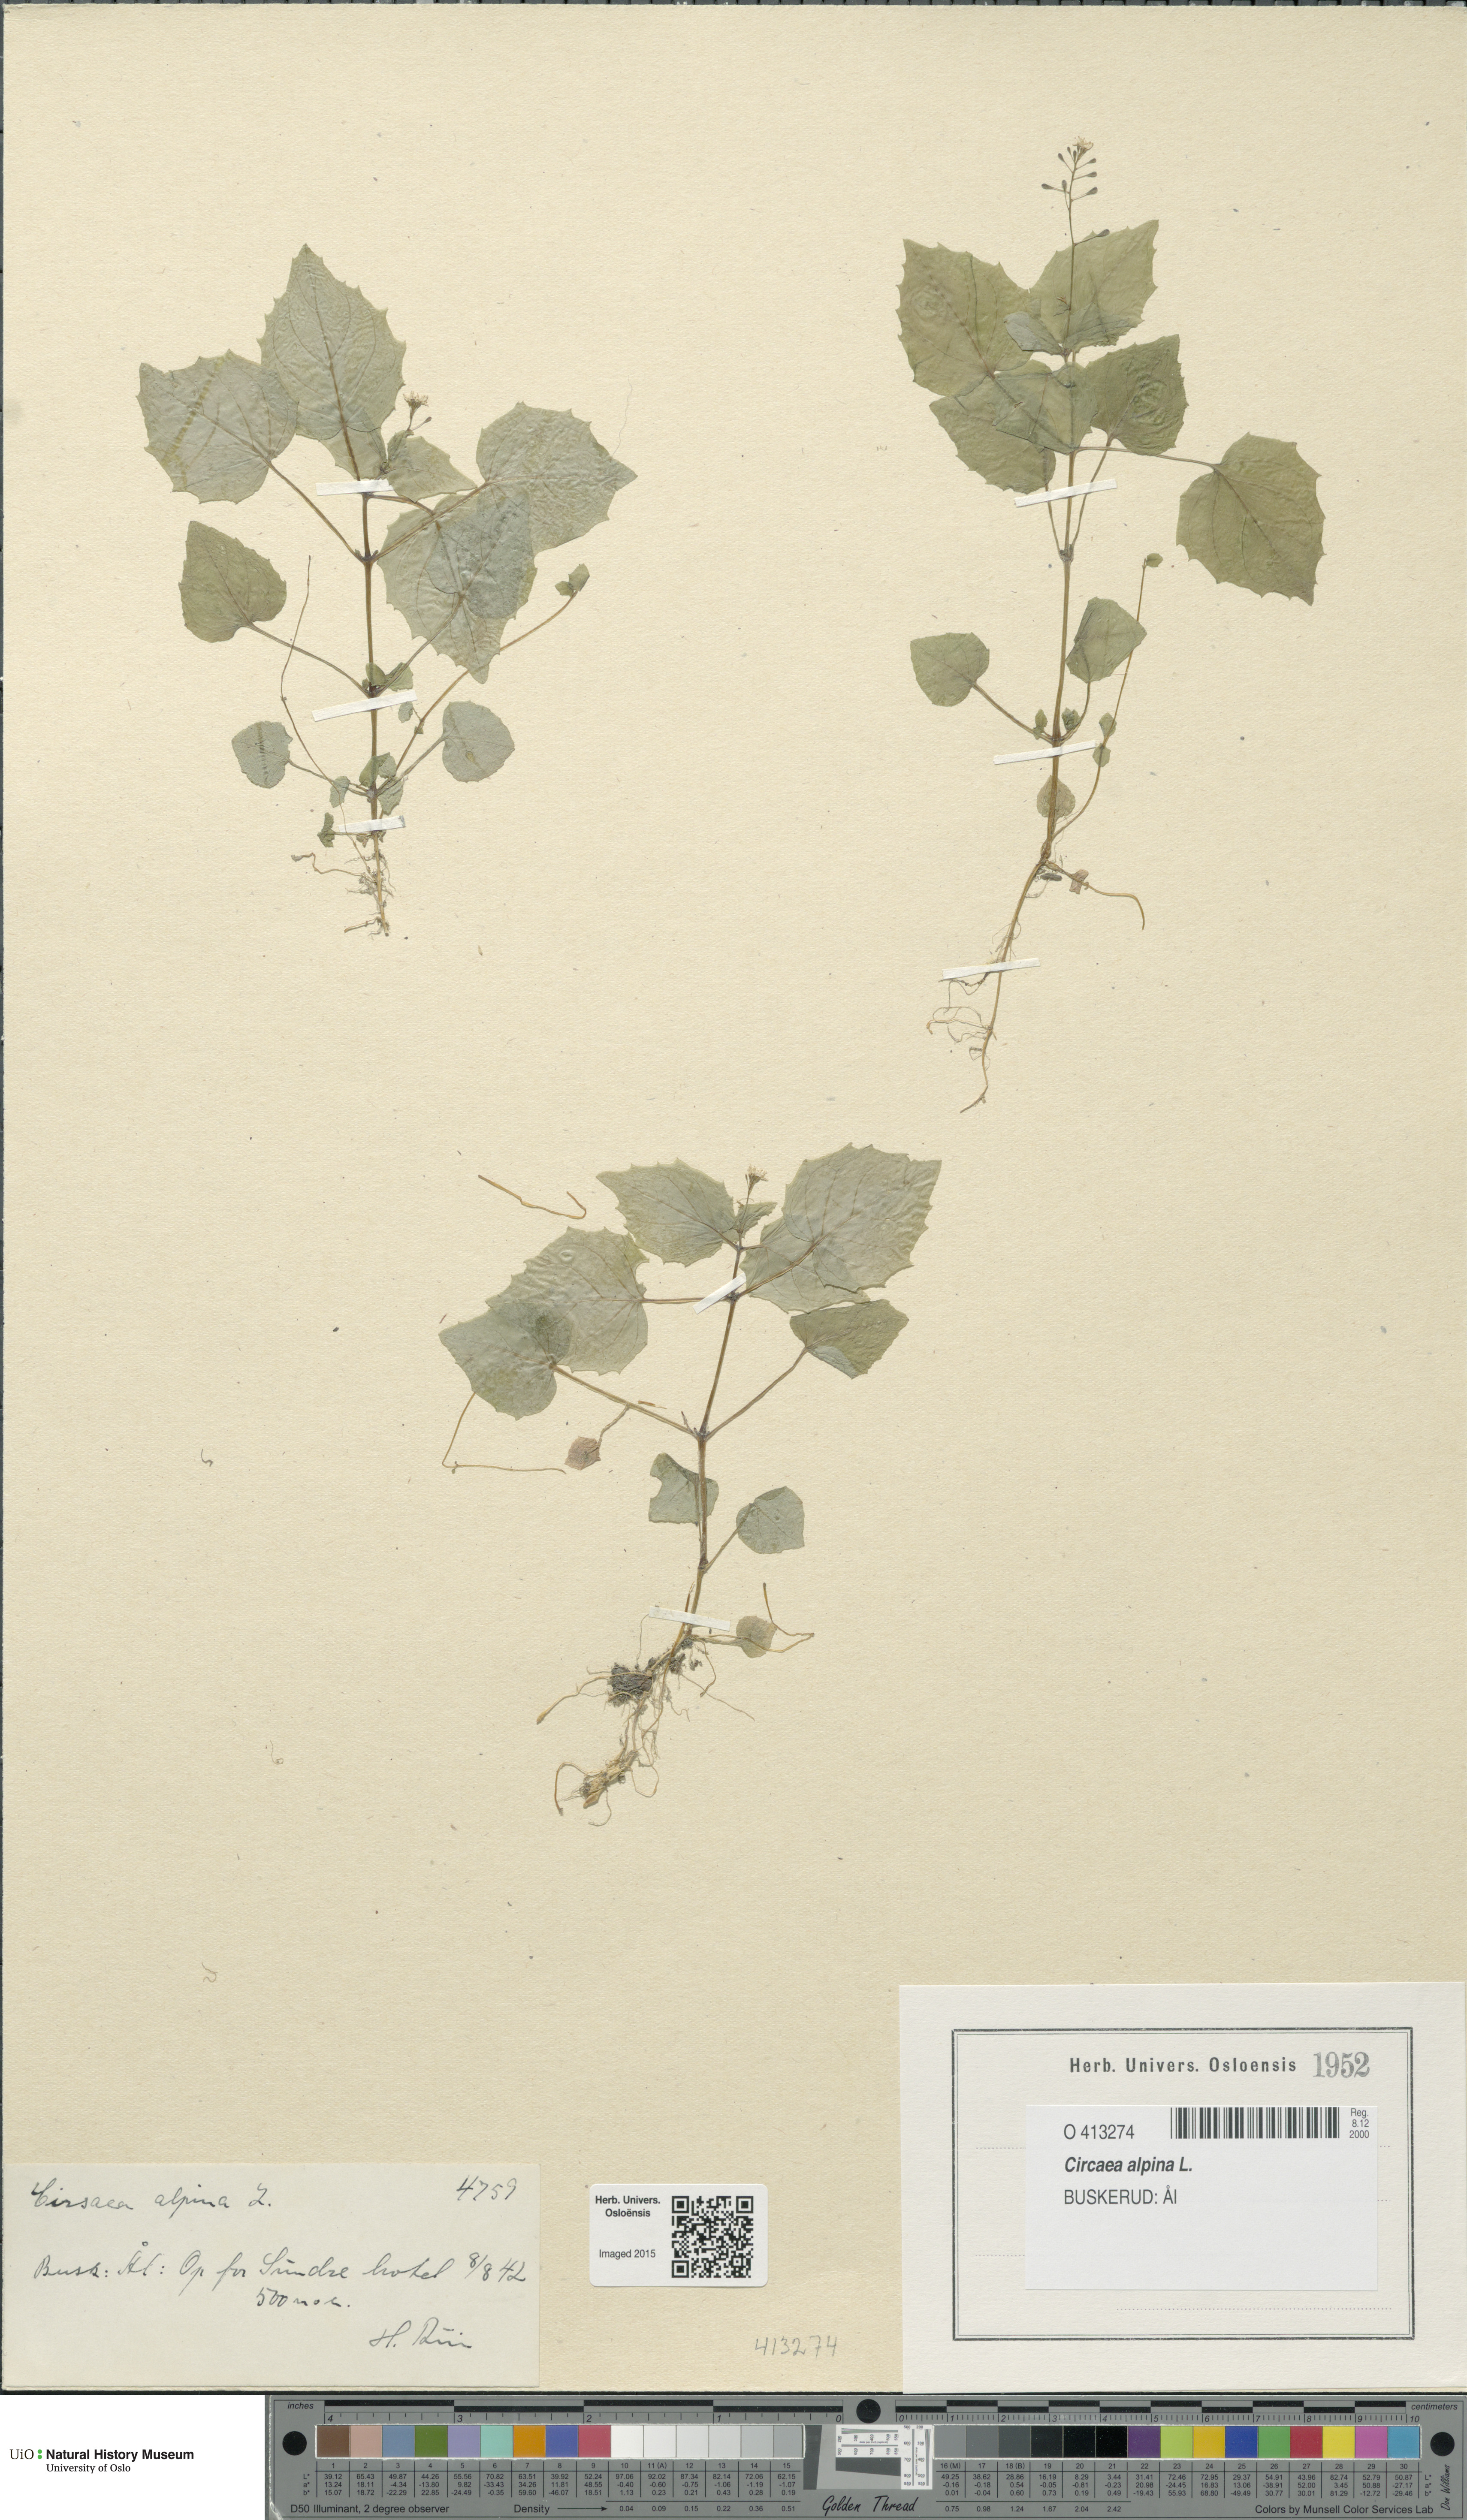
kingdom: Plantae
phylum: Tracheophyta
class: Magnoliopsida
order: Myrtales
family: Onagraceae
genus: Circaea
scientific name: Circaea alpina
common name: Alpine enchanter's-nightshade
